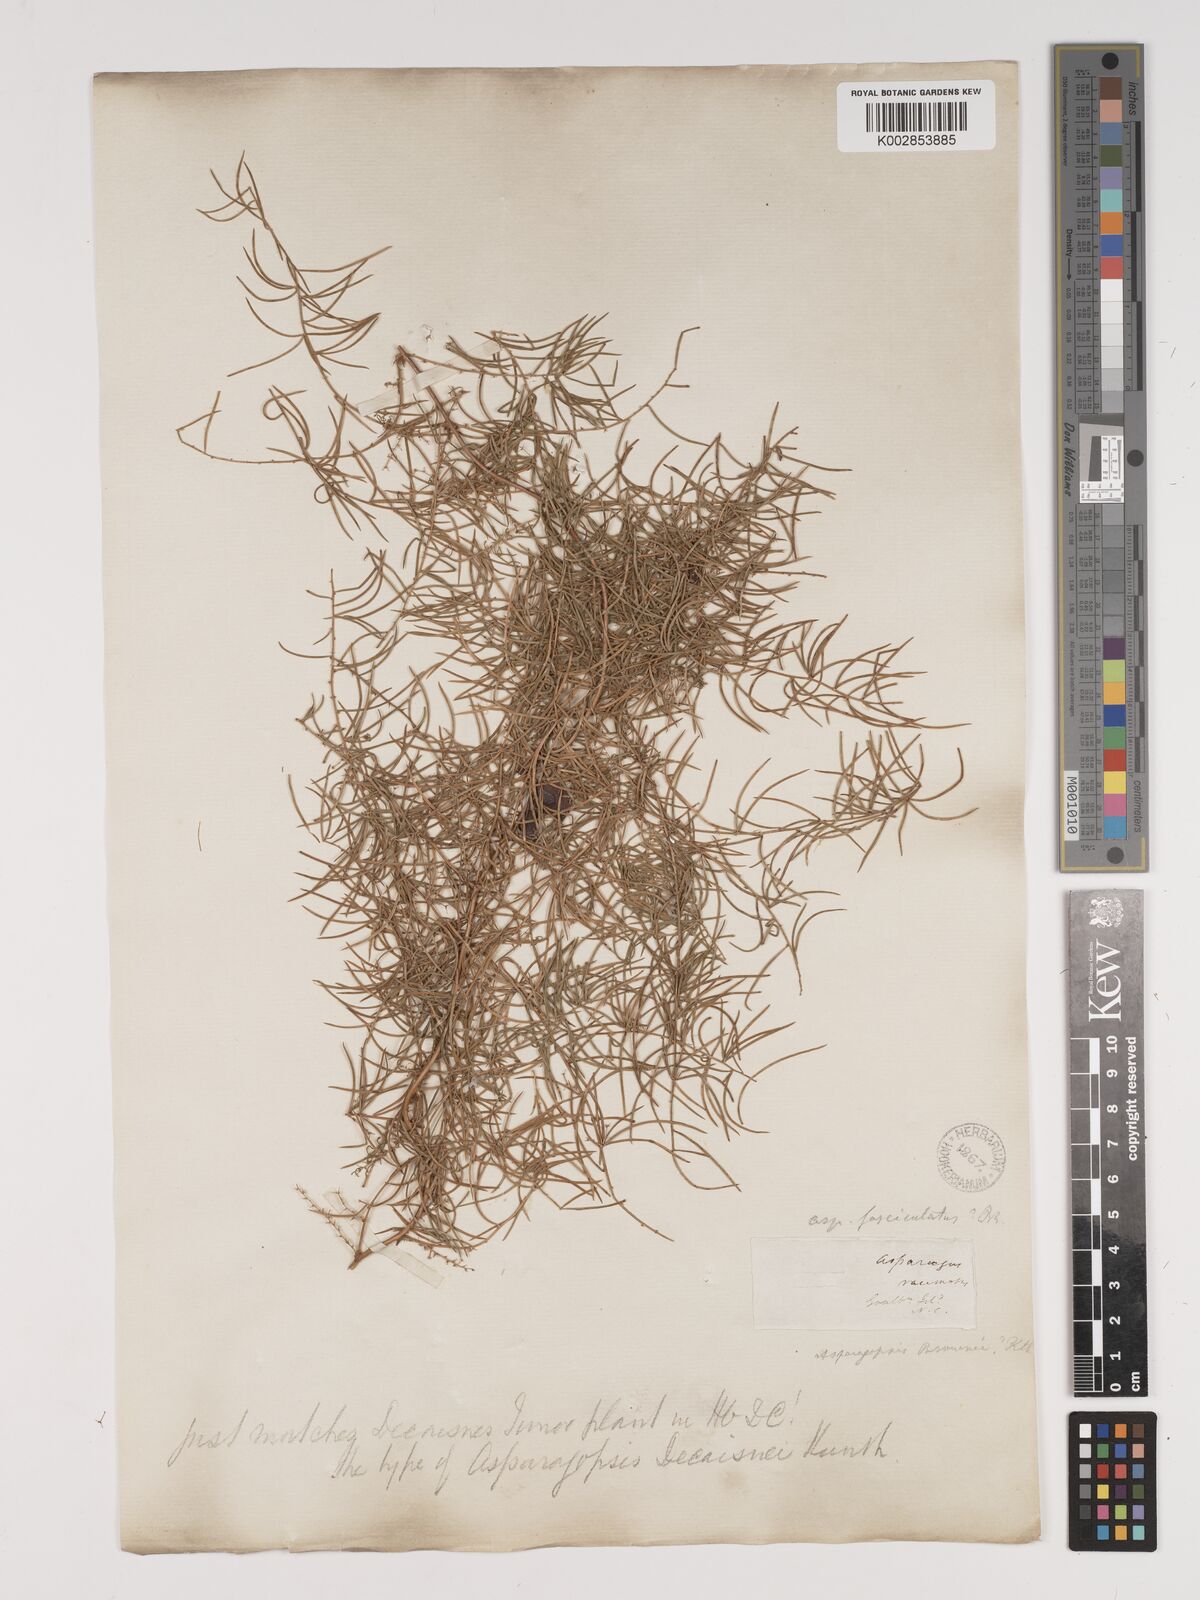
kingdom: Plantae
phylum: Tracheophyta
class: Liliopsida
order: Asparagales
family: Asparagaceae
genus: Asparagus
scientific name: Asparagus racemosus
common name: Asparagus-fern
